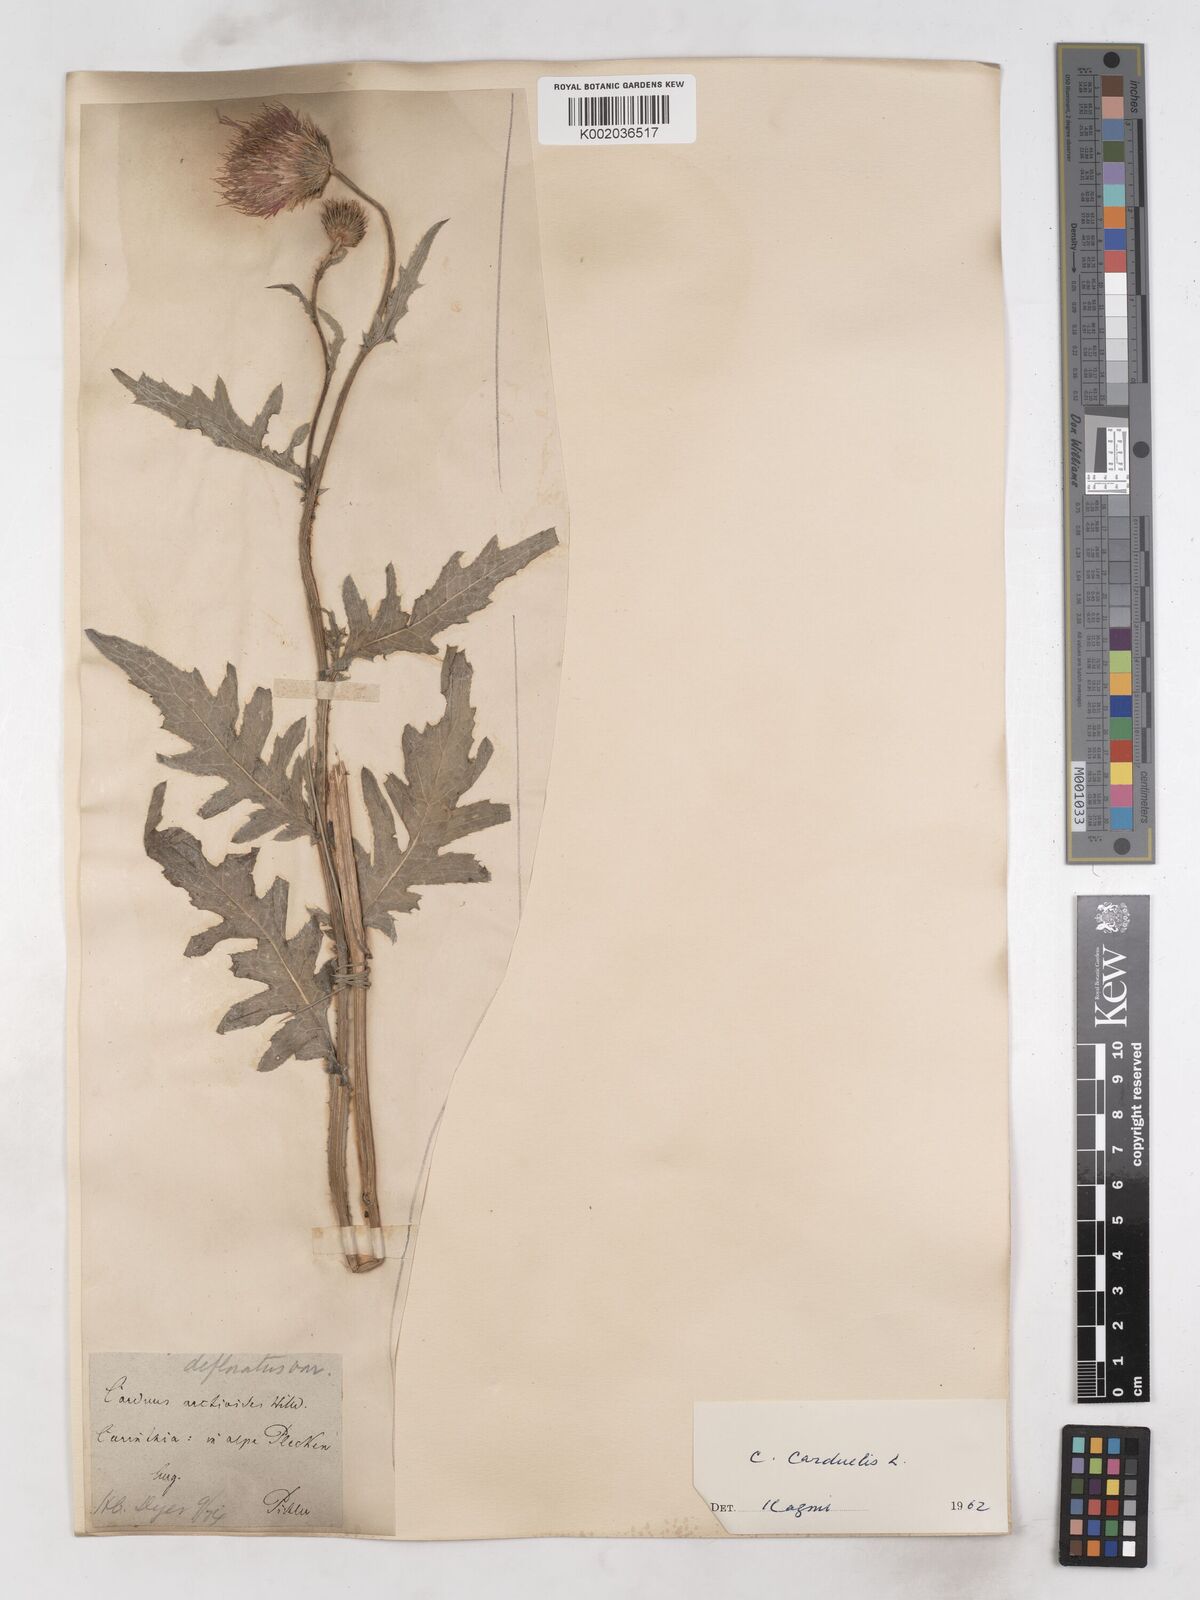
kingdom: Plantae
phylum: Tracheophyta
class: Magnoliopsida
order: Asterales
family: Asteraceae
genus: Carduus
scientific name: Carduus carduelis
